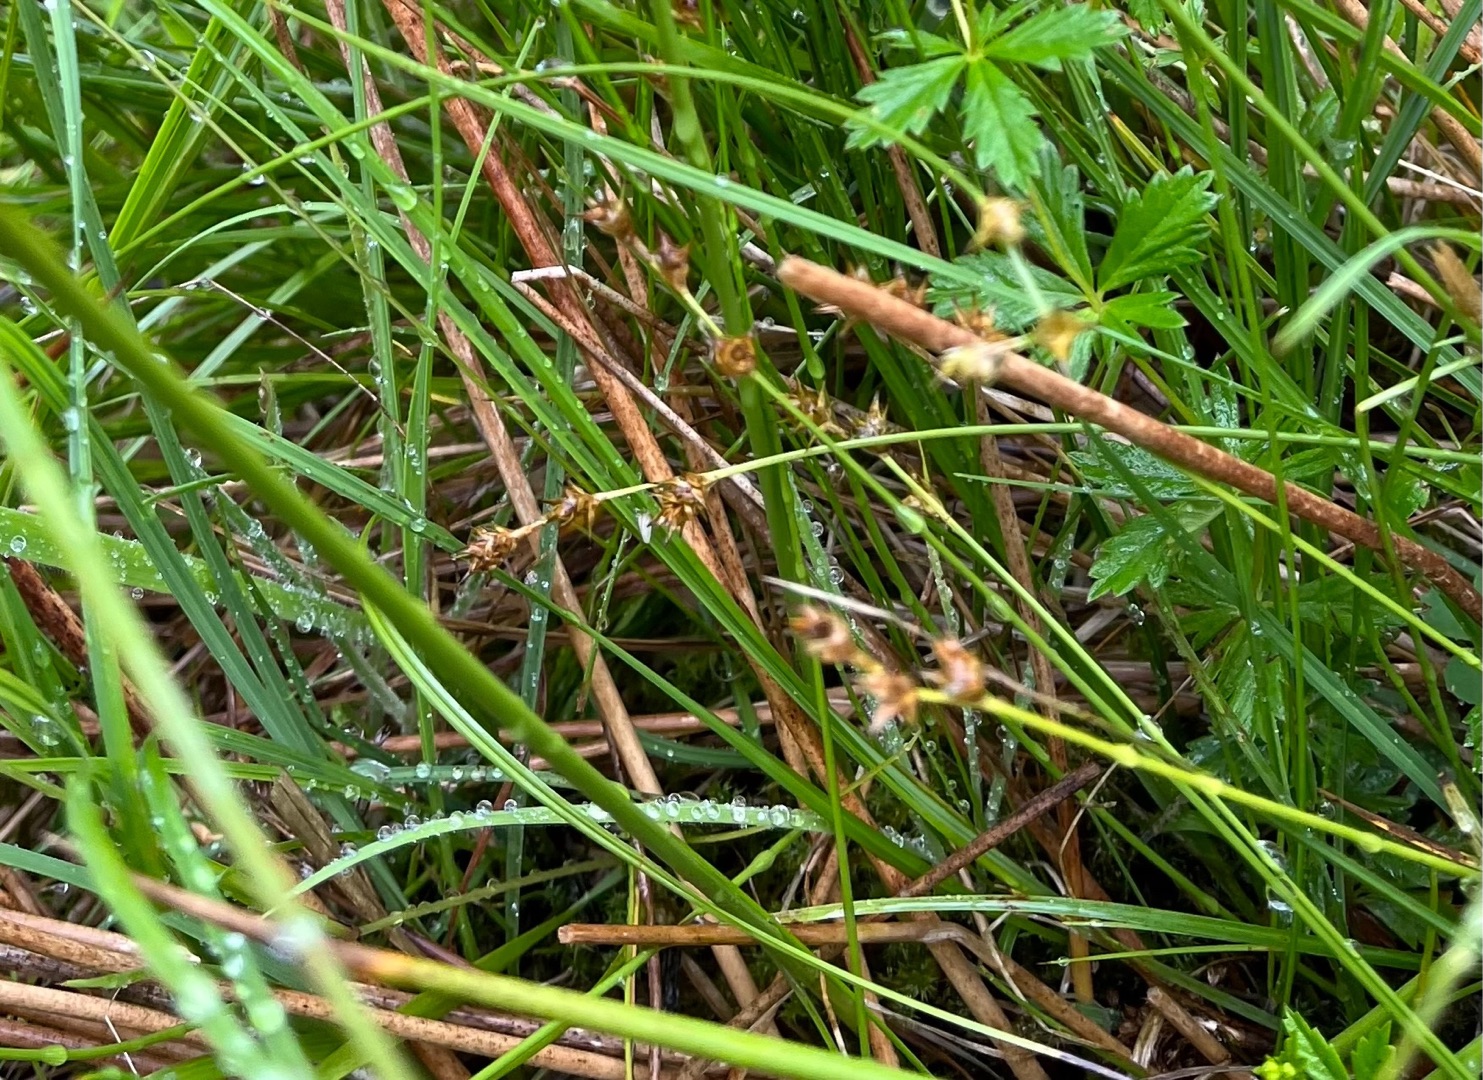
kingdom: Plantae
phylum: Tracheophyta
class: Liliopsida
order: Poales
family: Cyperaceae
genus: Carex
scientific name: Carex echinata
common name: Stjerne-star
